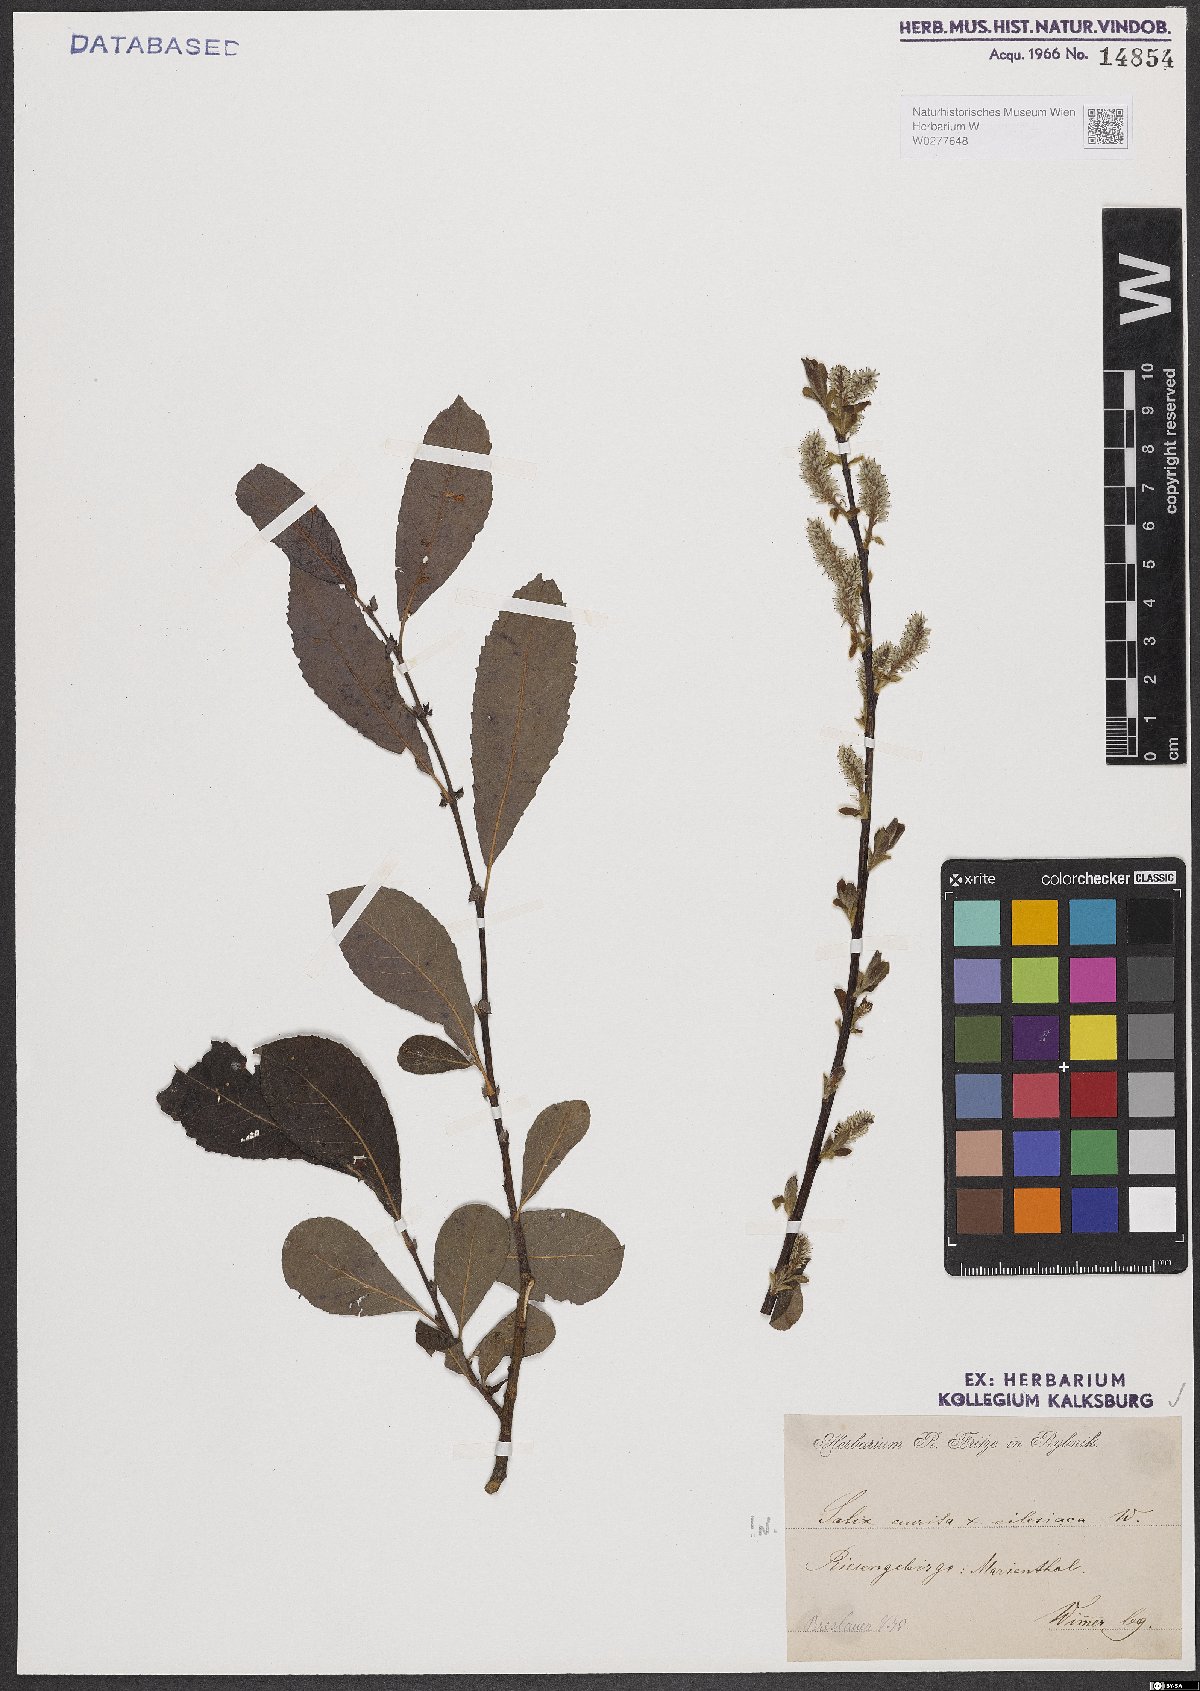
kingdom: Plantae
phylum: Tracheophyta
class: Magnoliopsida
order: Malpighiales
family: Salicaceae
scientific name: Salicaceae
